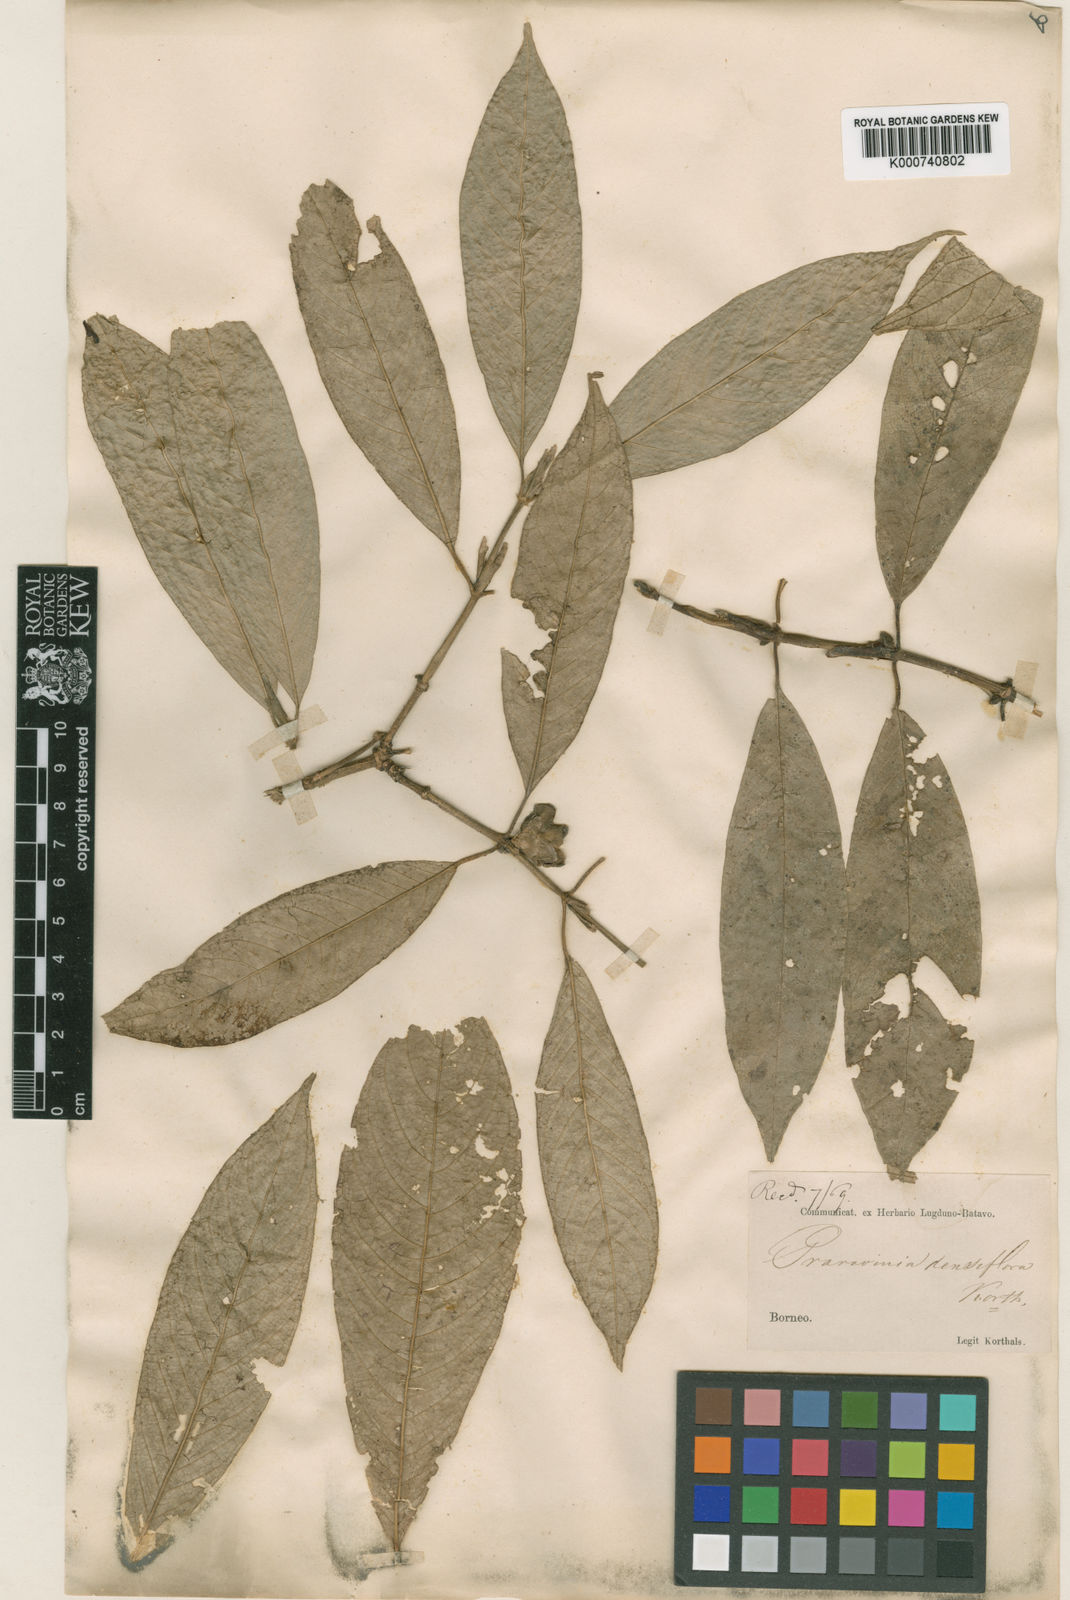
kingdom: Plantae
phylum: Tracheophyta
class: Magnoliopsida
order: Gentianales
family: Rubiaceae
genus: Praravinia
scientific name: Praravinia densiflora
